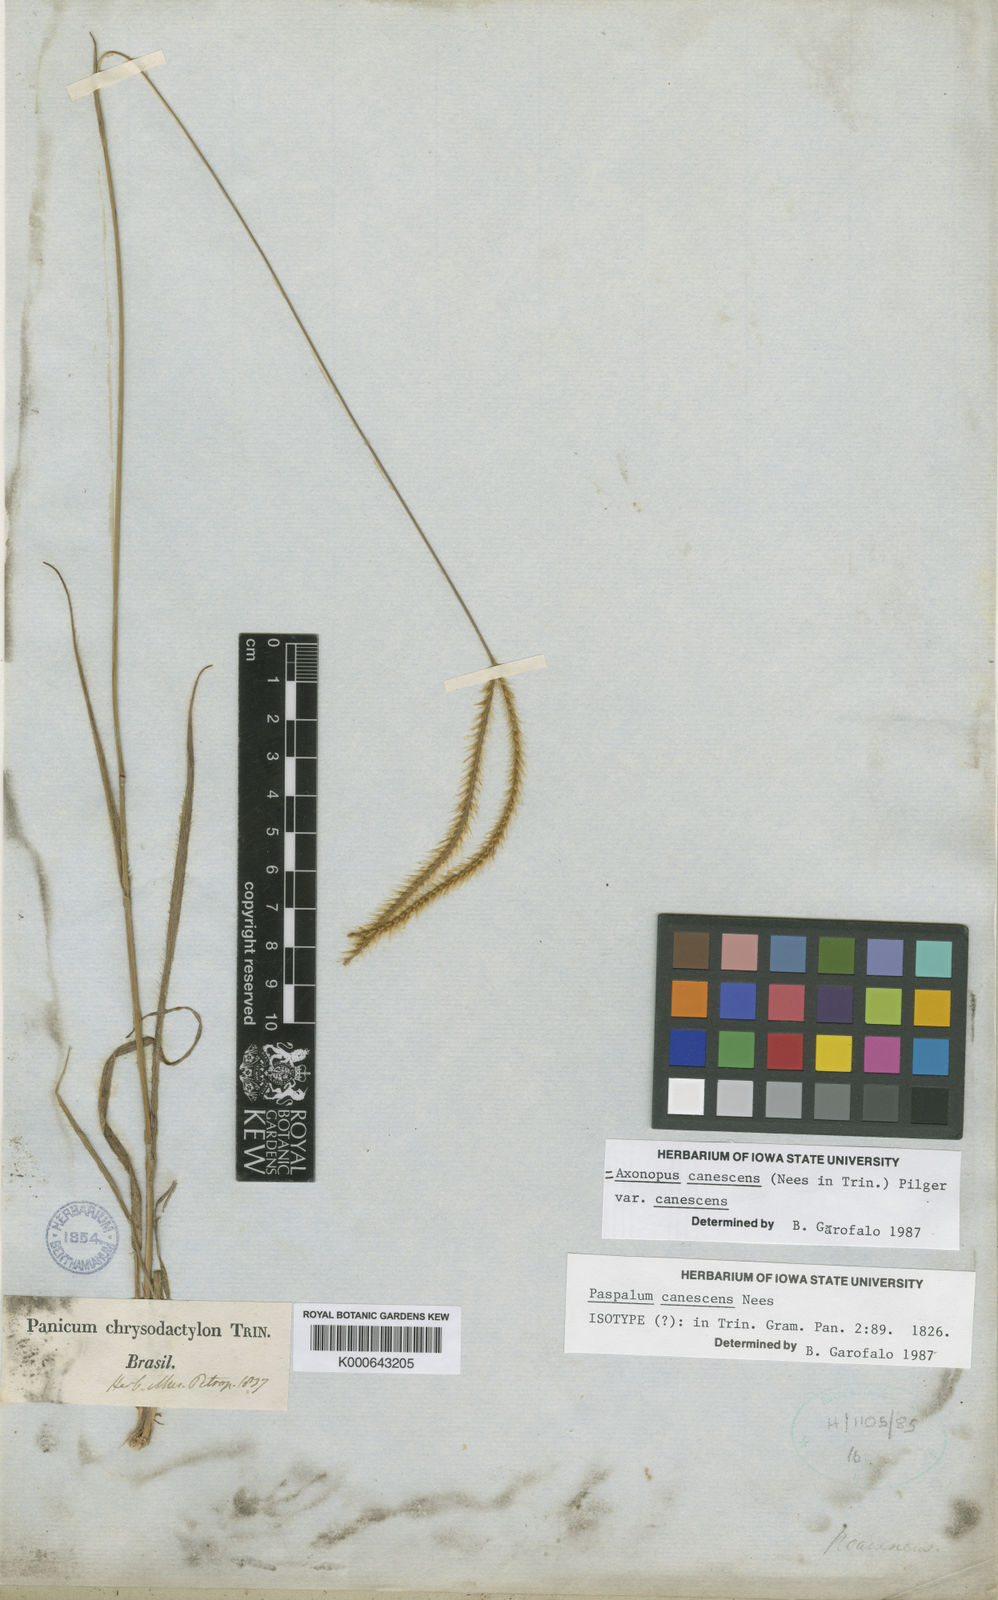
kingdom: Plantae
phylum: Tracheophyta
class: Liliopsida
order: Poales
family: Poaceae
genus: Axonopus
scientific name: Axonopus aureus
